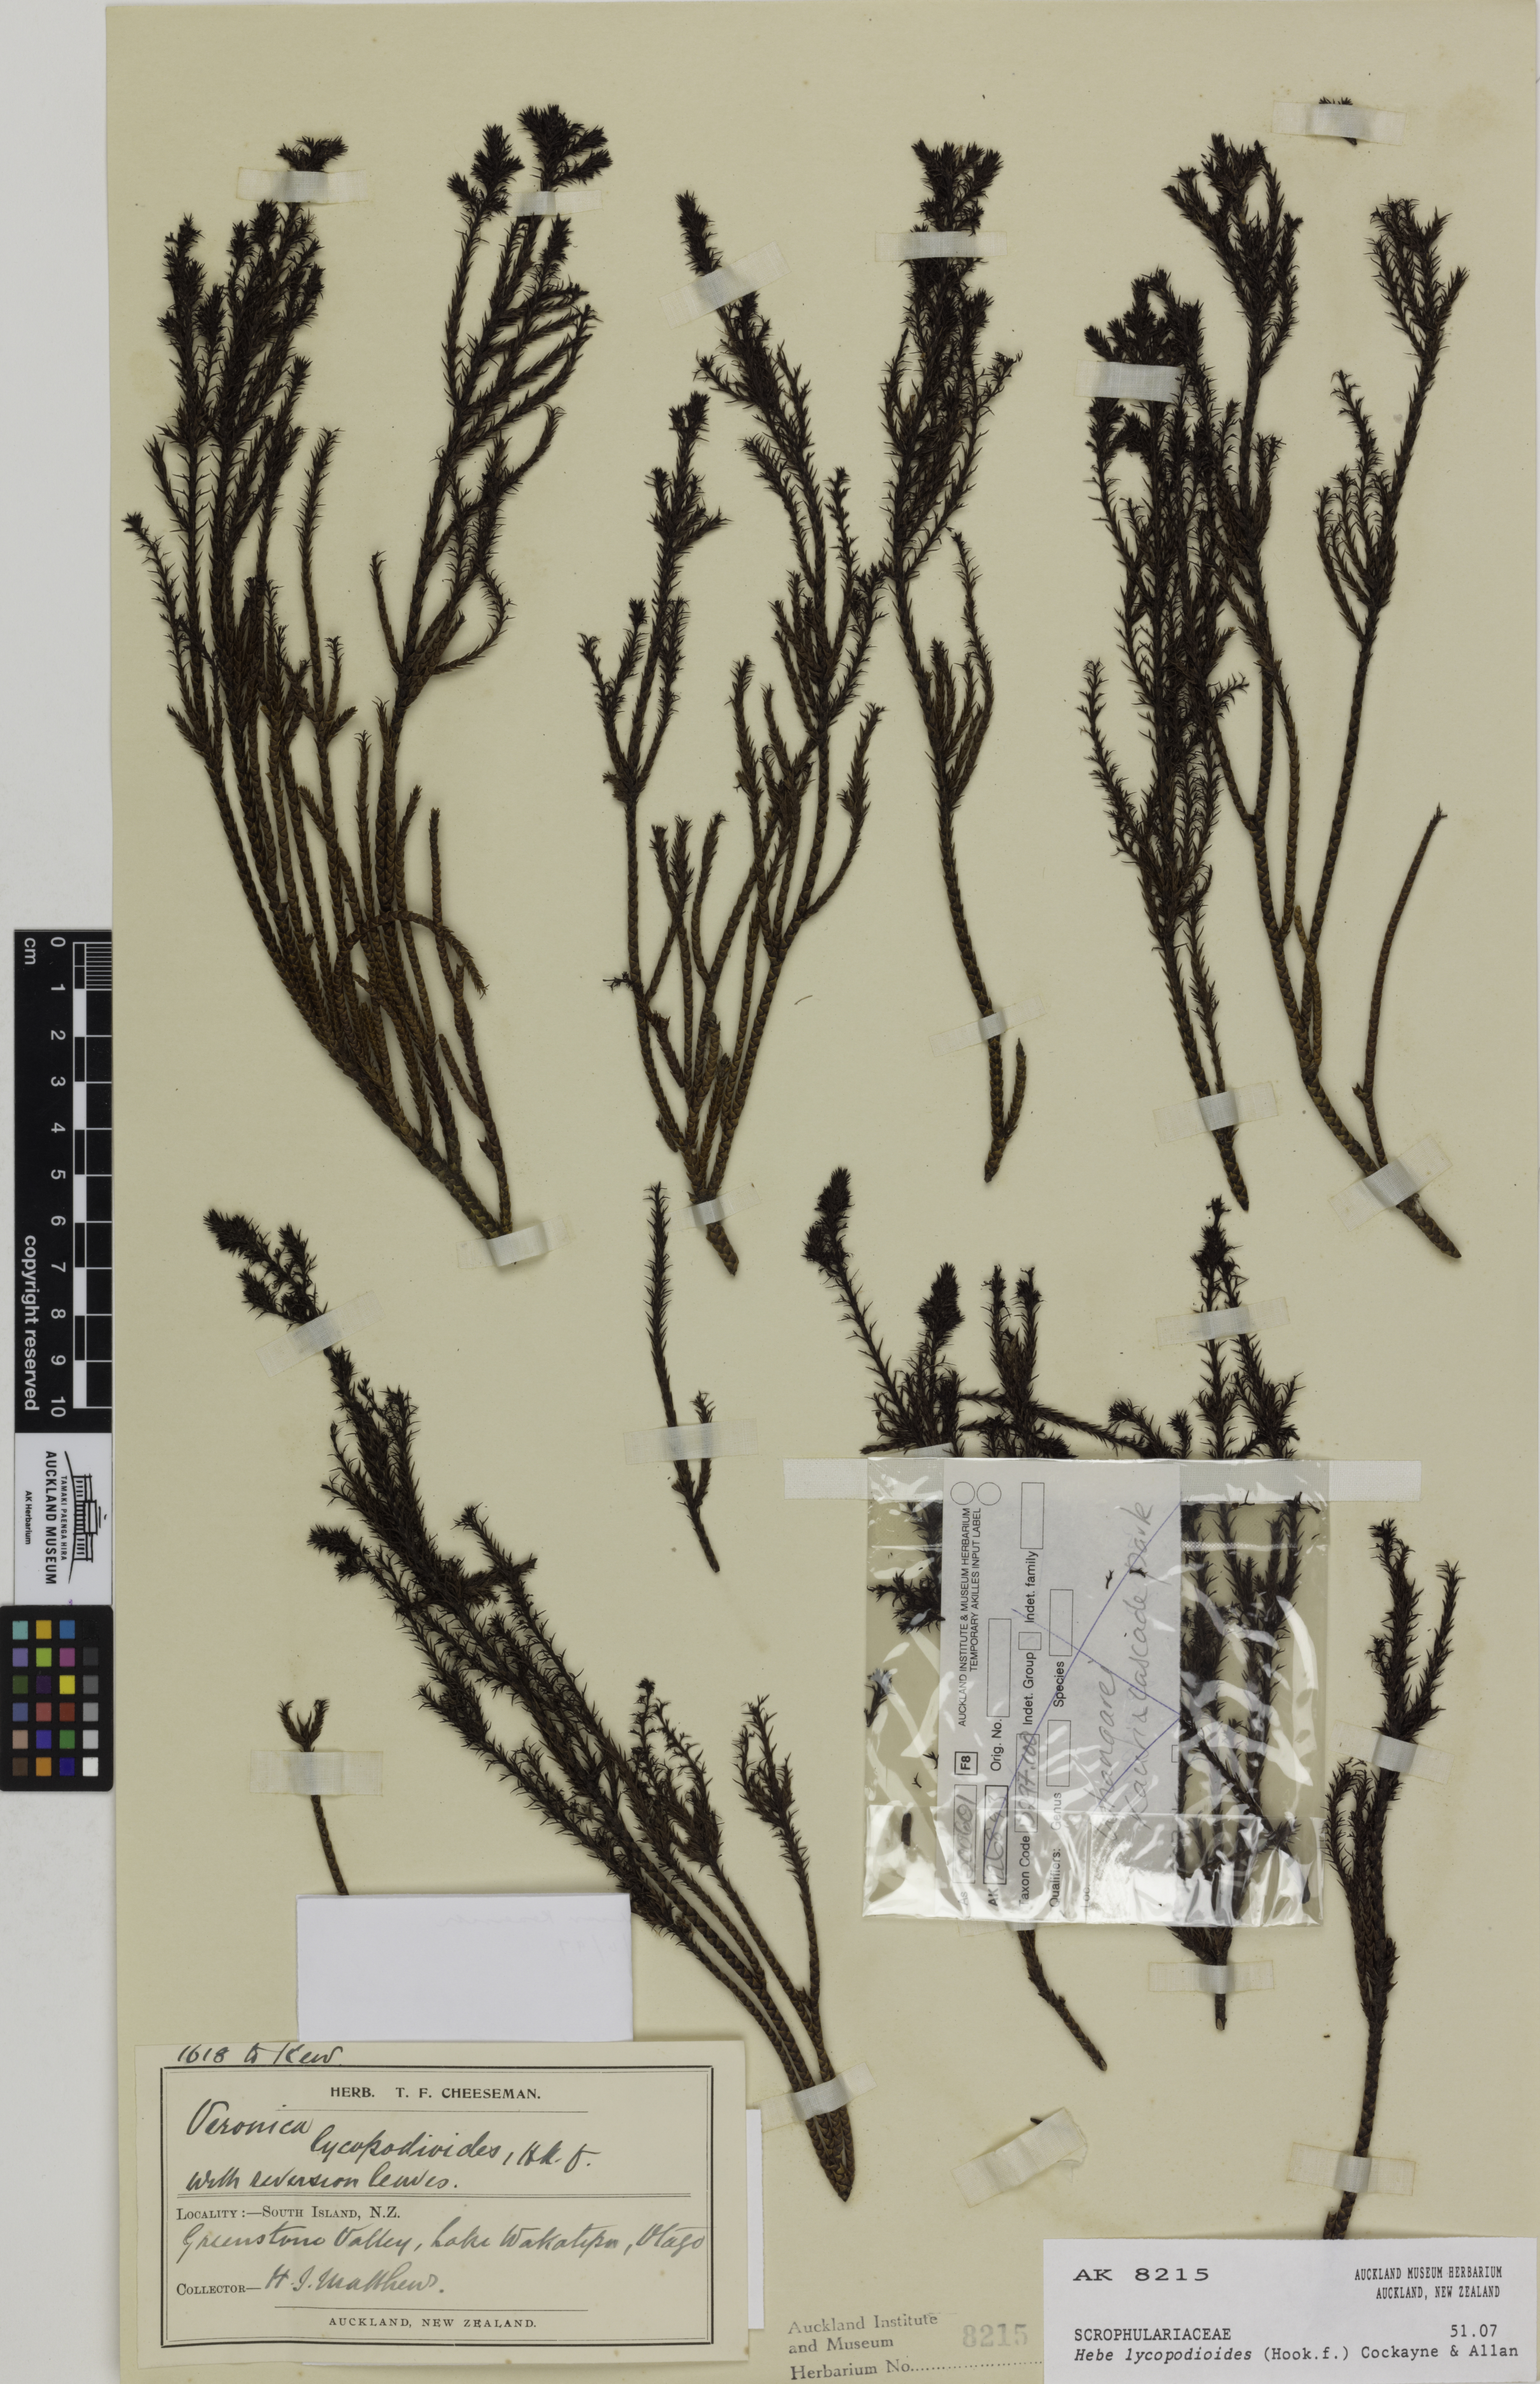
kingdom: Plantae
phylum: Tracheophyta
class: Magnoliopsida
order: Lamiales
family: Plantaginaceae
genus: Veronica
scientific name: Veronica lycopodioides
